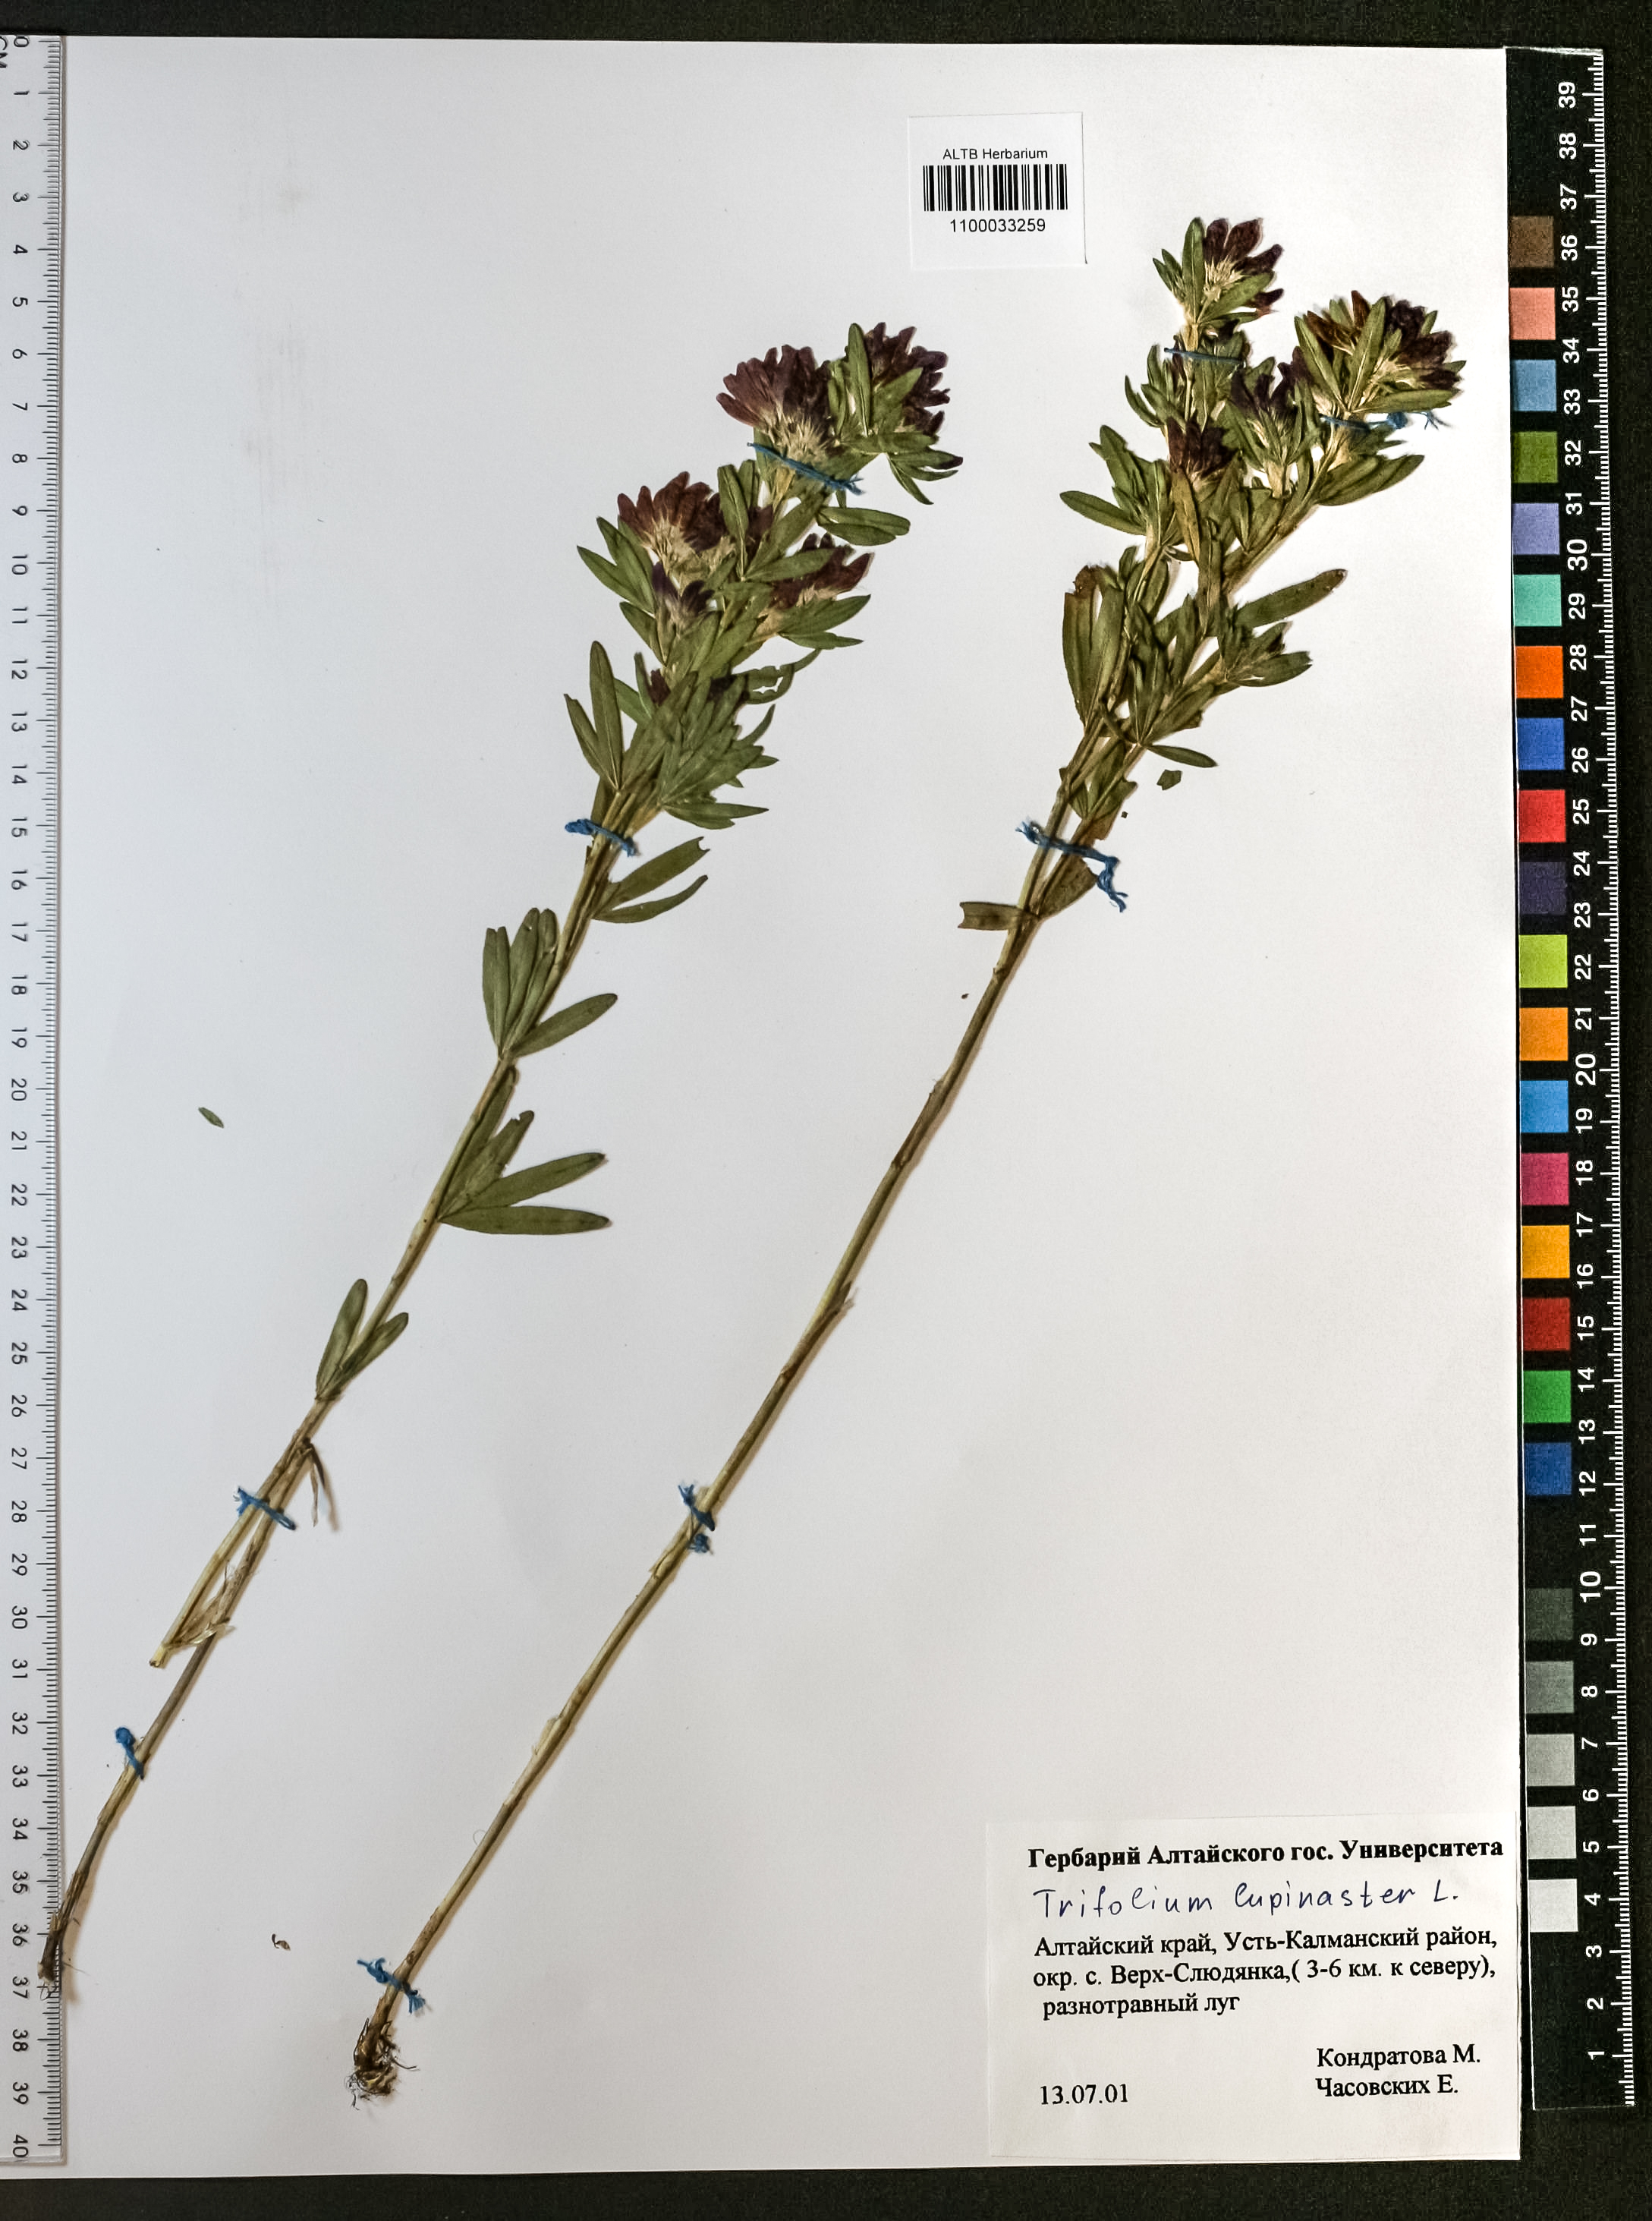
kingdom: Plantae
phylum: Tracheophyta
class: Magnoliopsida
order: Fabales
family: Fabaceae
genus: Trifolium
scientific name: Trifolium lupinaster
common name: Lupine clover
